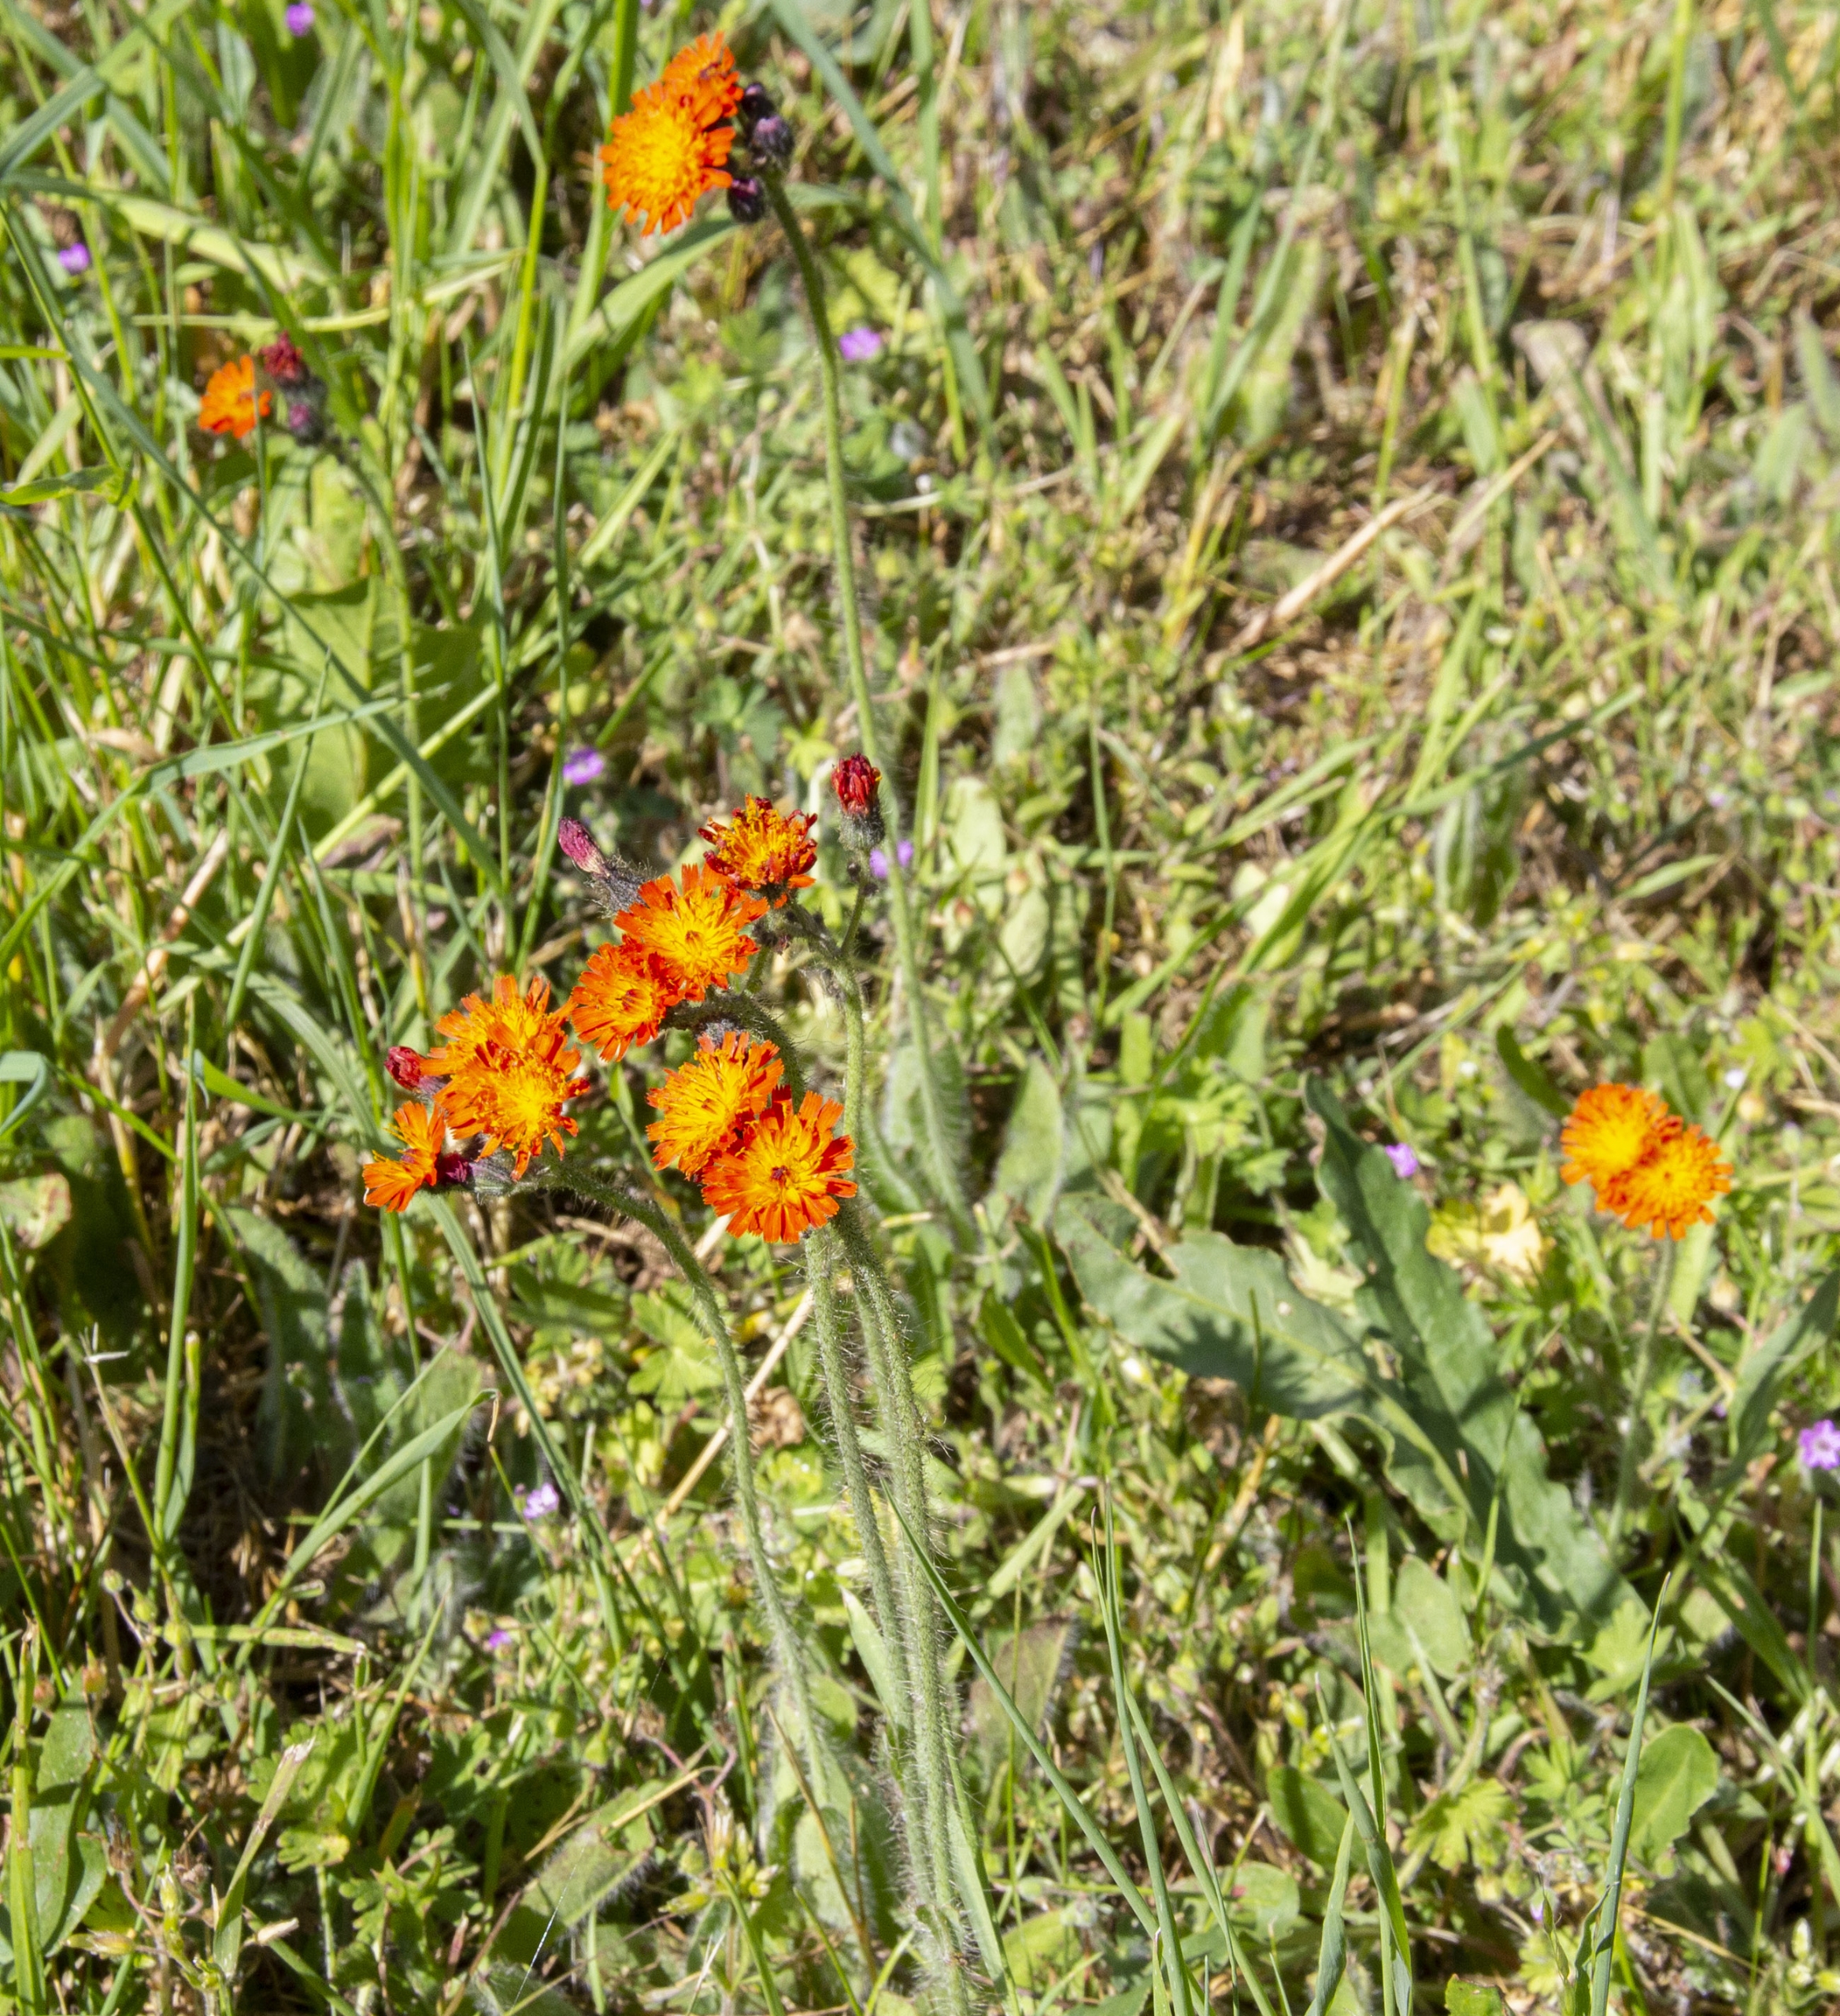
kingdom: Plantae
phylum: Tracheophyta
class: Magnoliopsida
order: Asterales
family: Asteraceae
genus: Pilosella
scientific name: Pilosella aurantiaca
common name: Pomerans-høgeurt
